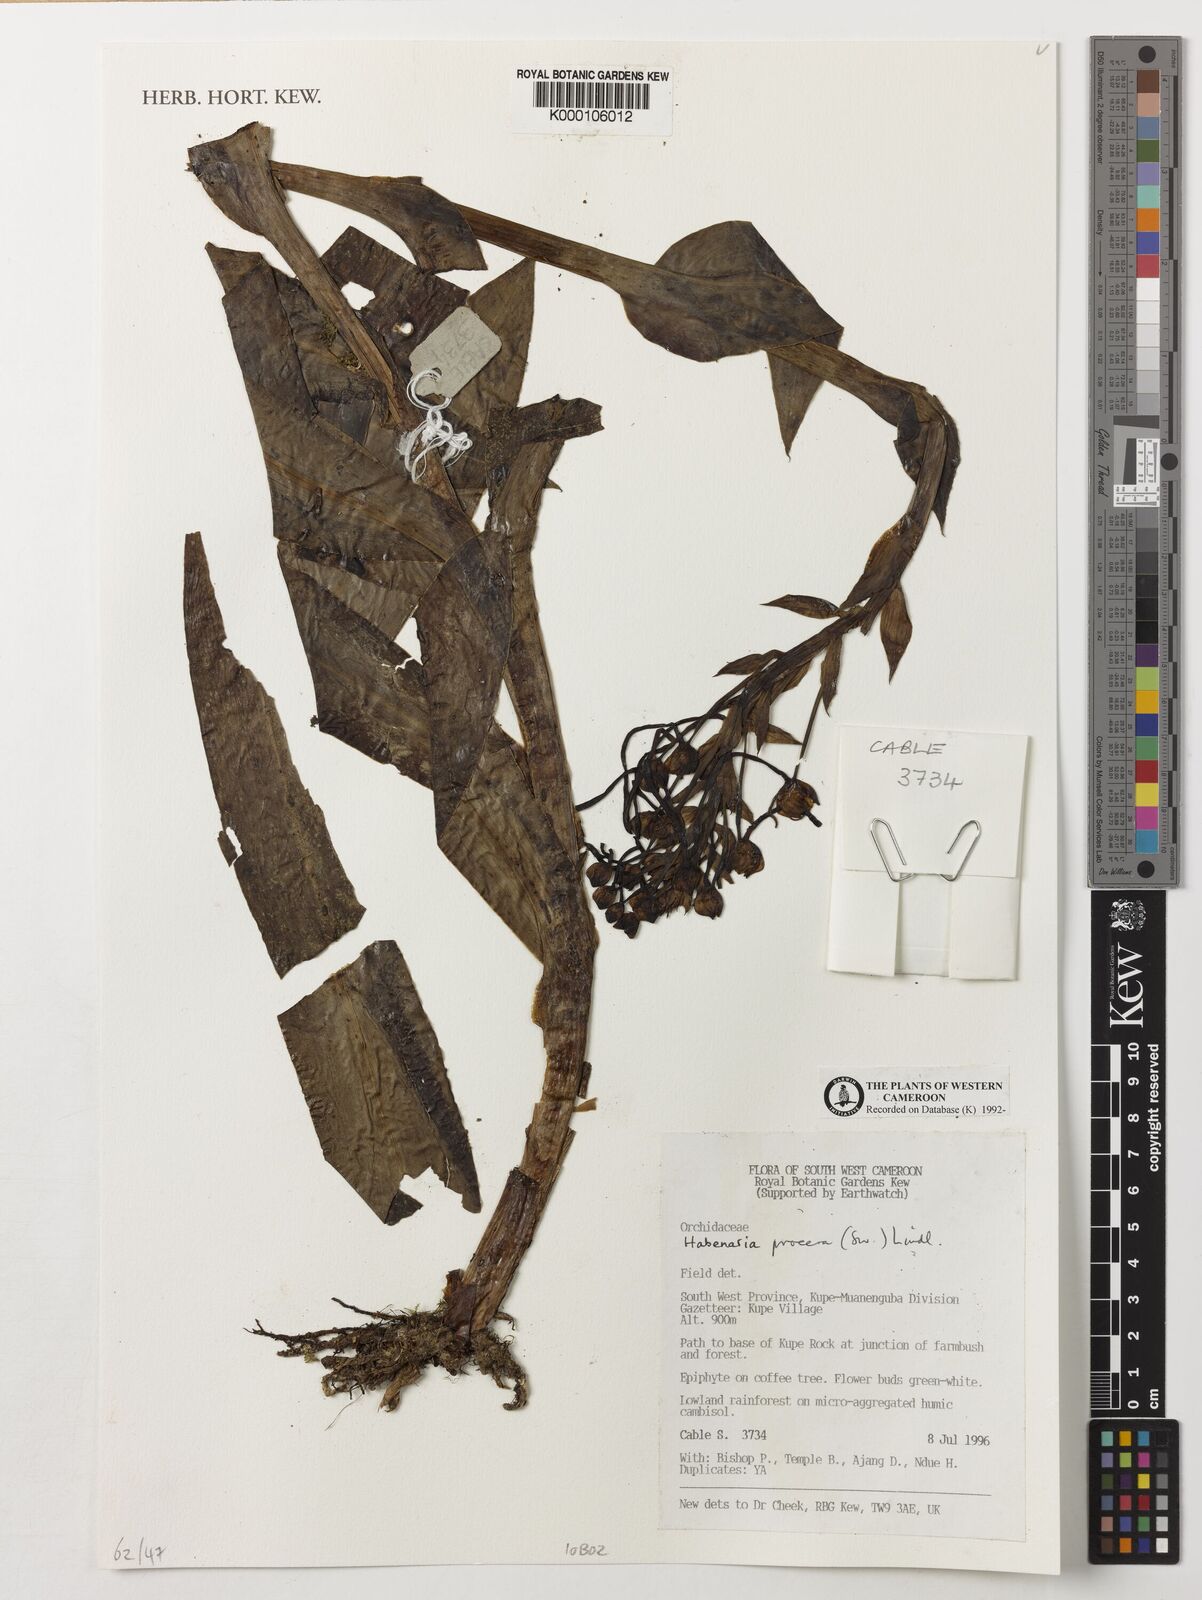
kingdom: Plantae
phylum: Tracheophyta
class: Liliopsida
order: Asparagales
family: Orchidaceae
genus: Habenaria
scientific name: Habenaria procera
